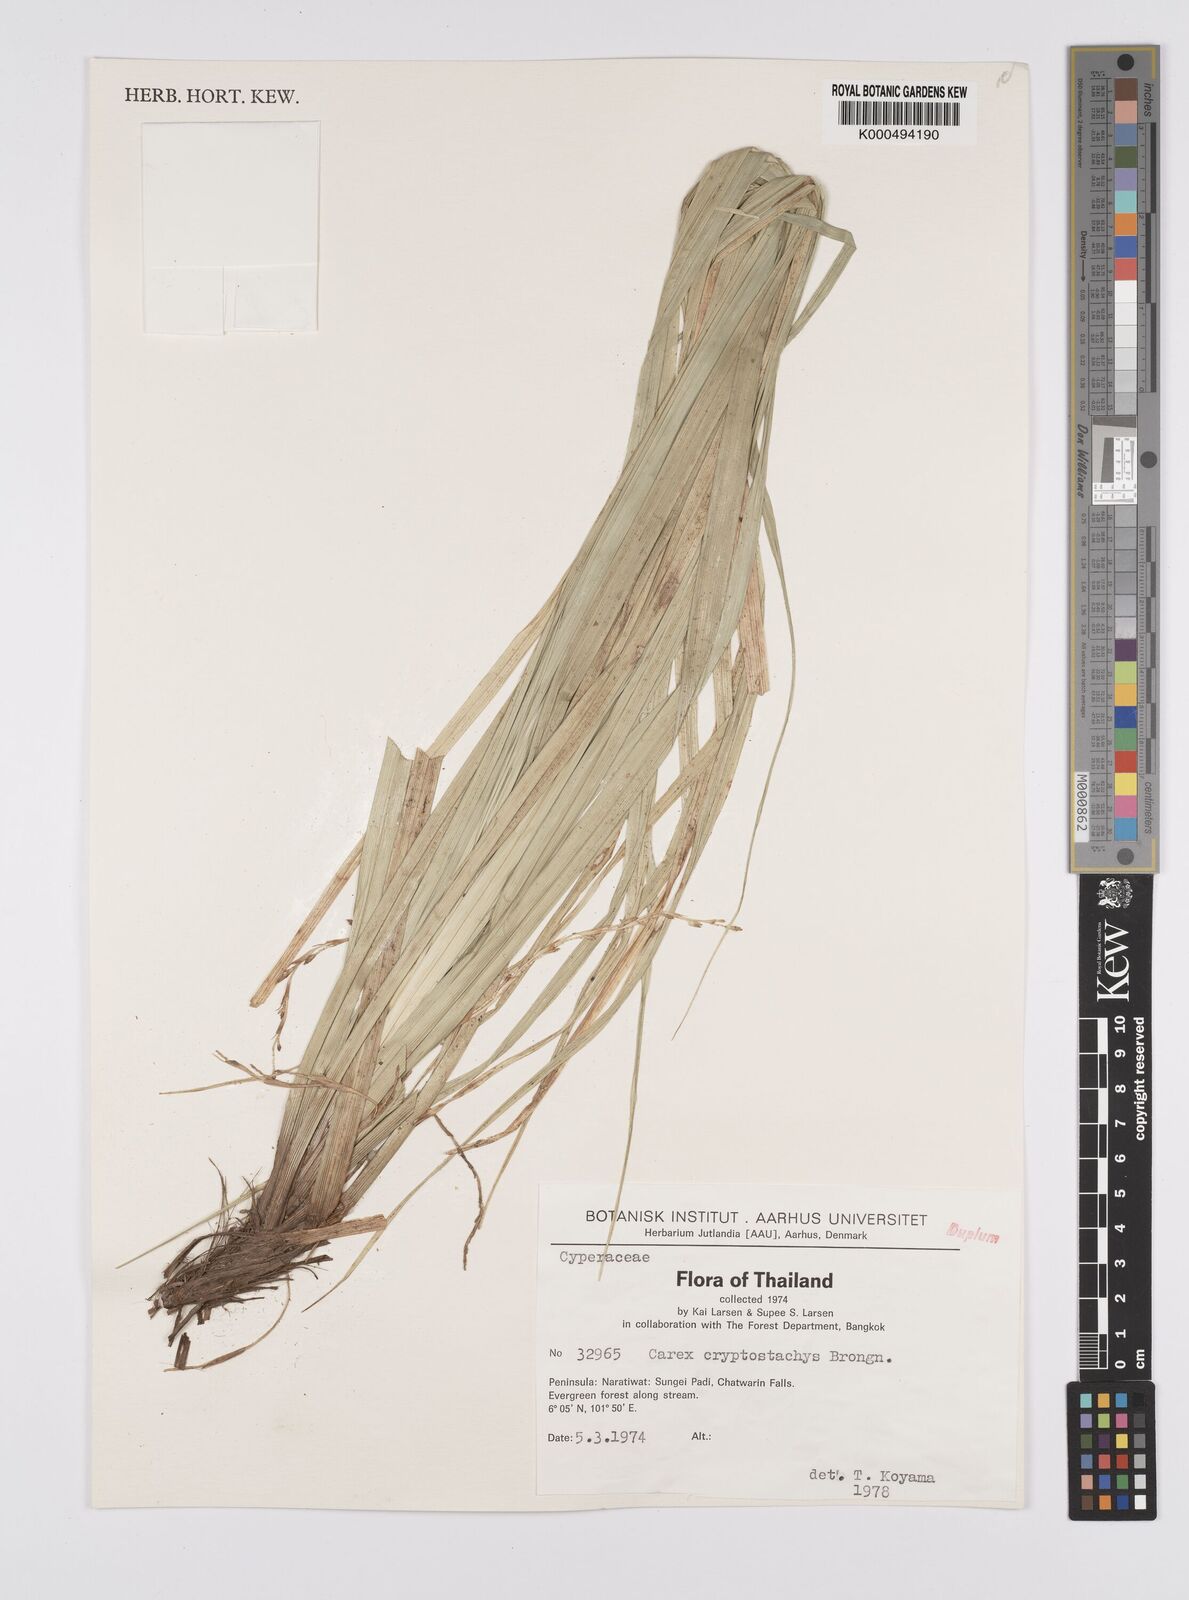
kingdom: Plantae
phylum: Tracheophyta
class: Liliopsida
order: Poales
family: Cyperaceae
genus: Carex
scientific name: Carex cryptostachys
